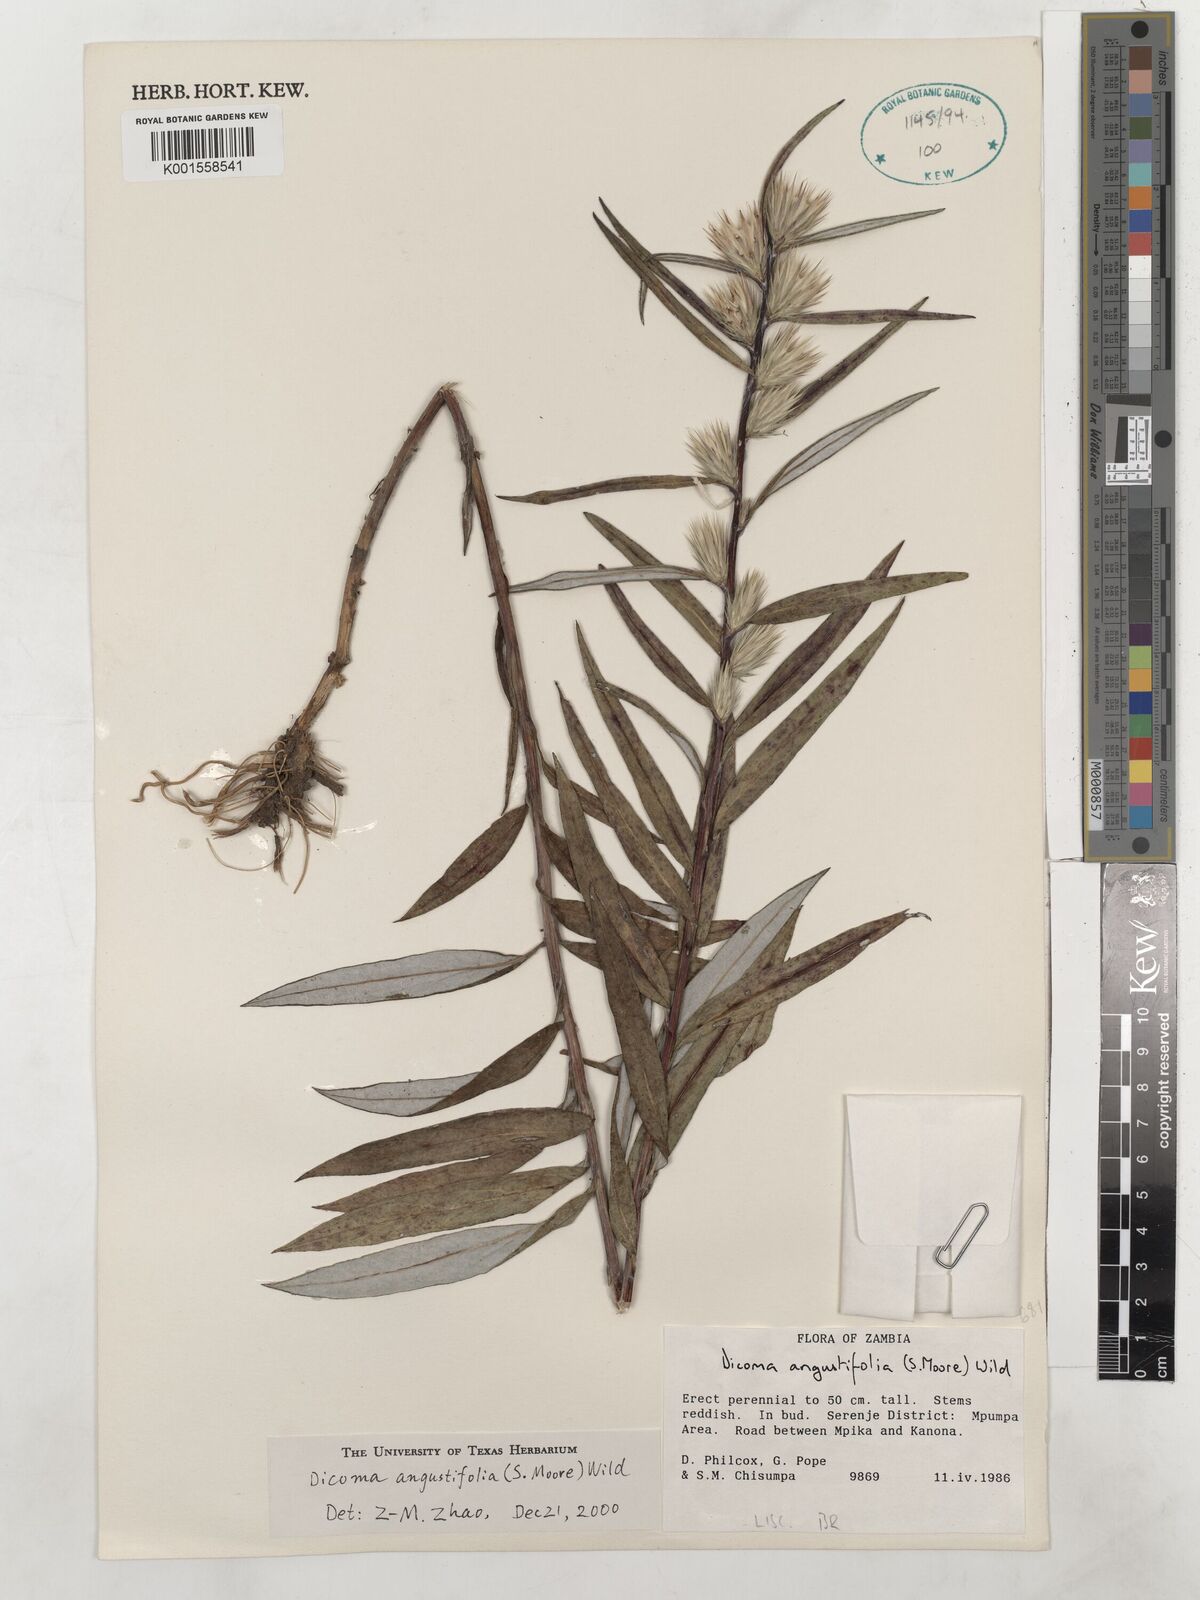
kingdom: Plantae
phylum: Tracheophyta
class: Magnoliopsida
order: Asterales
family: Asteraceae
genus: Macledium
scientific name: Macledium poggei
